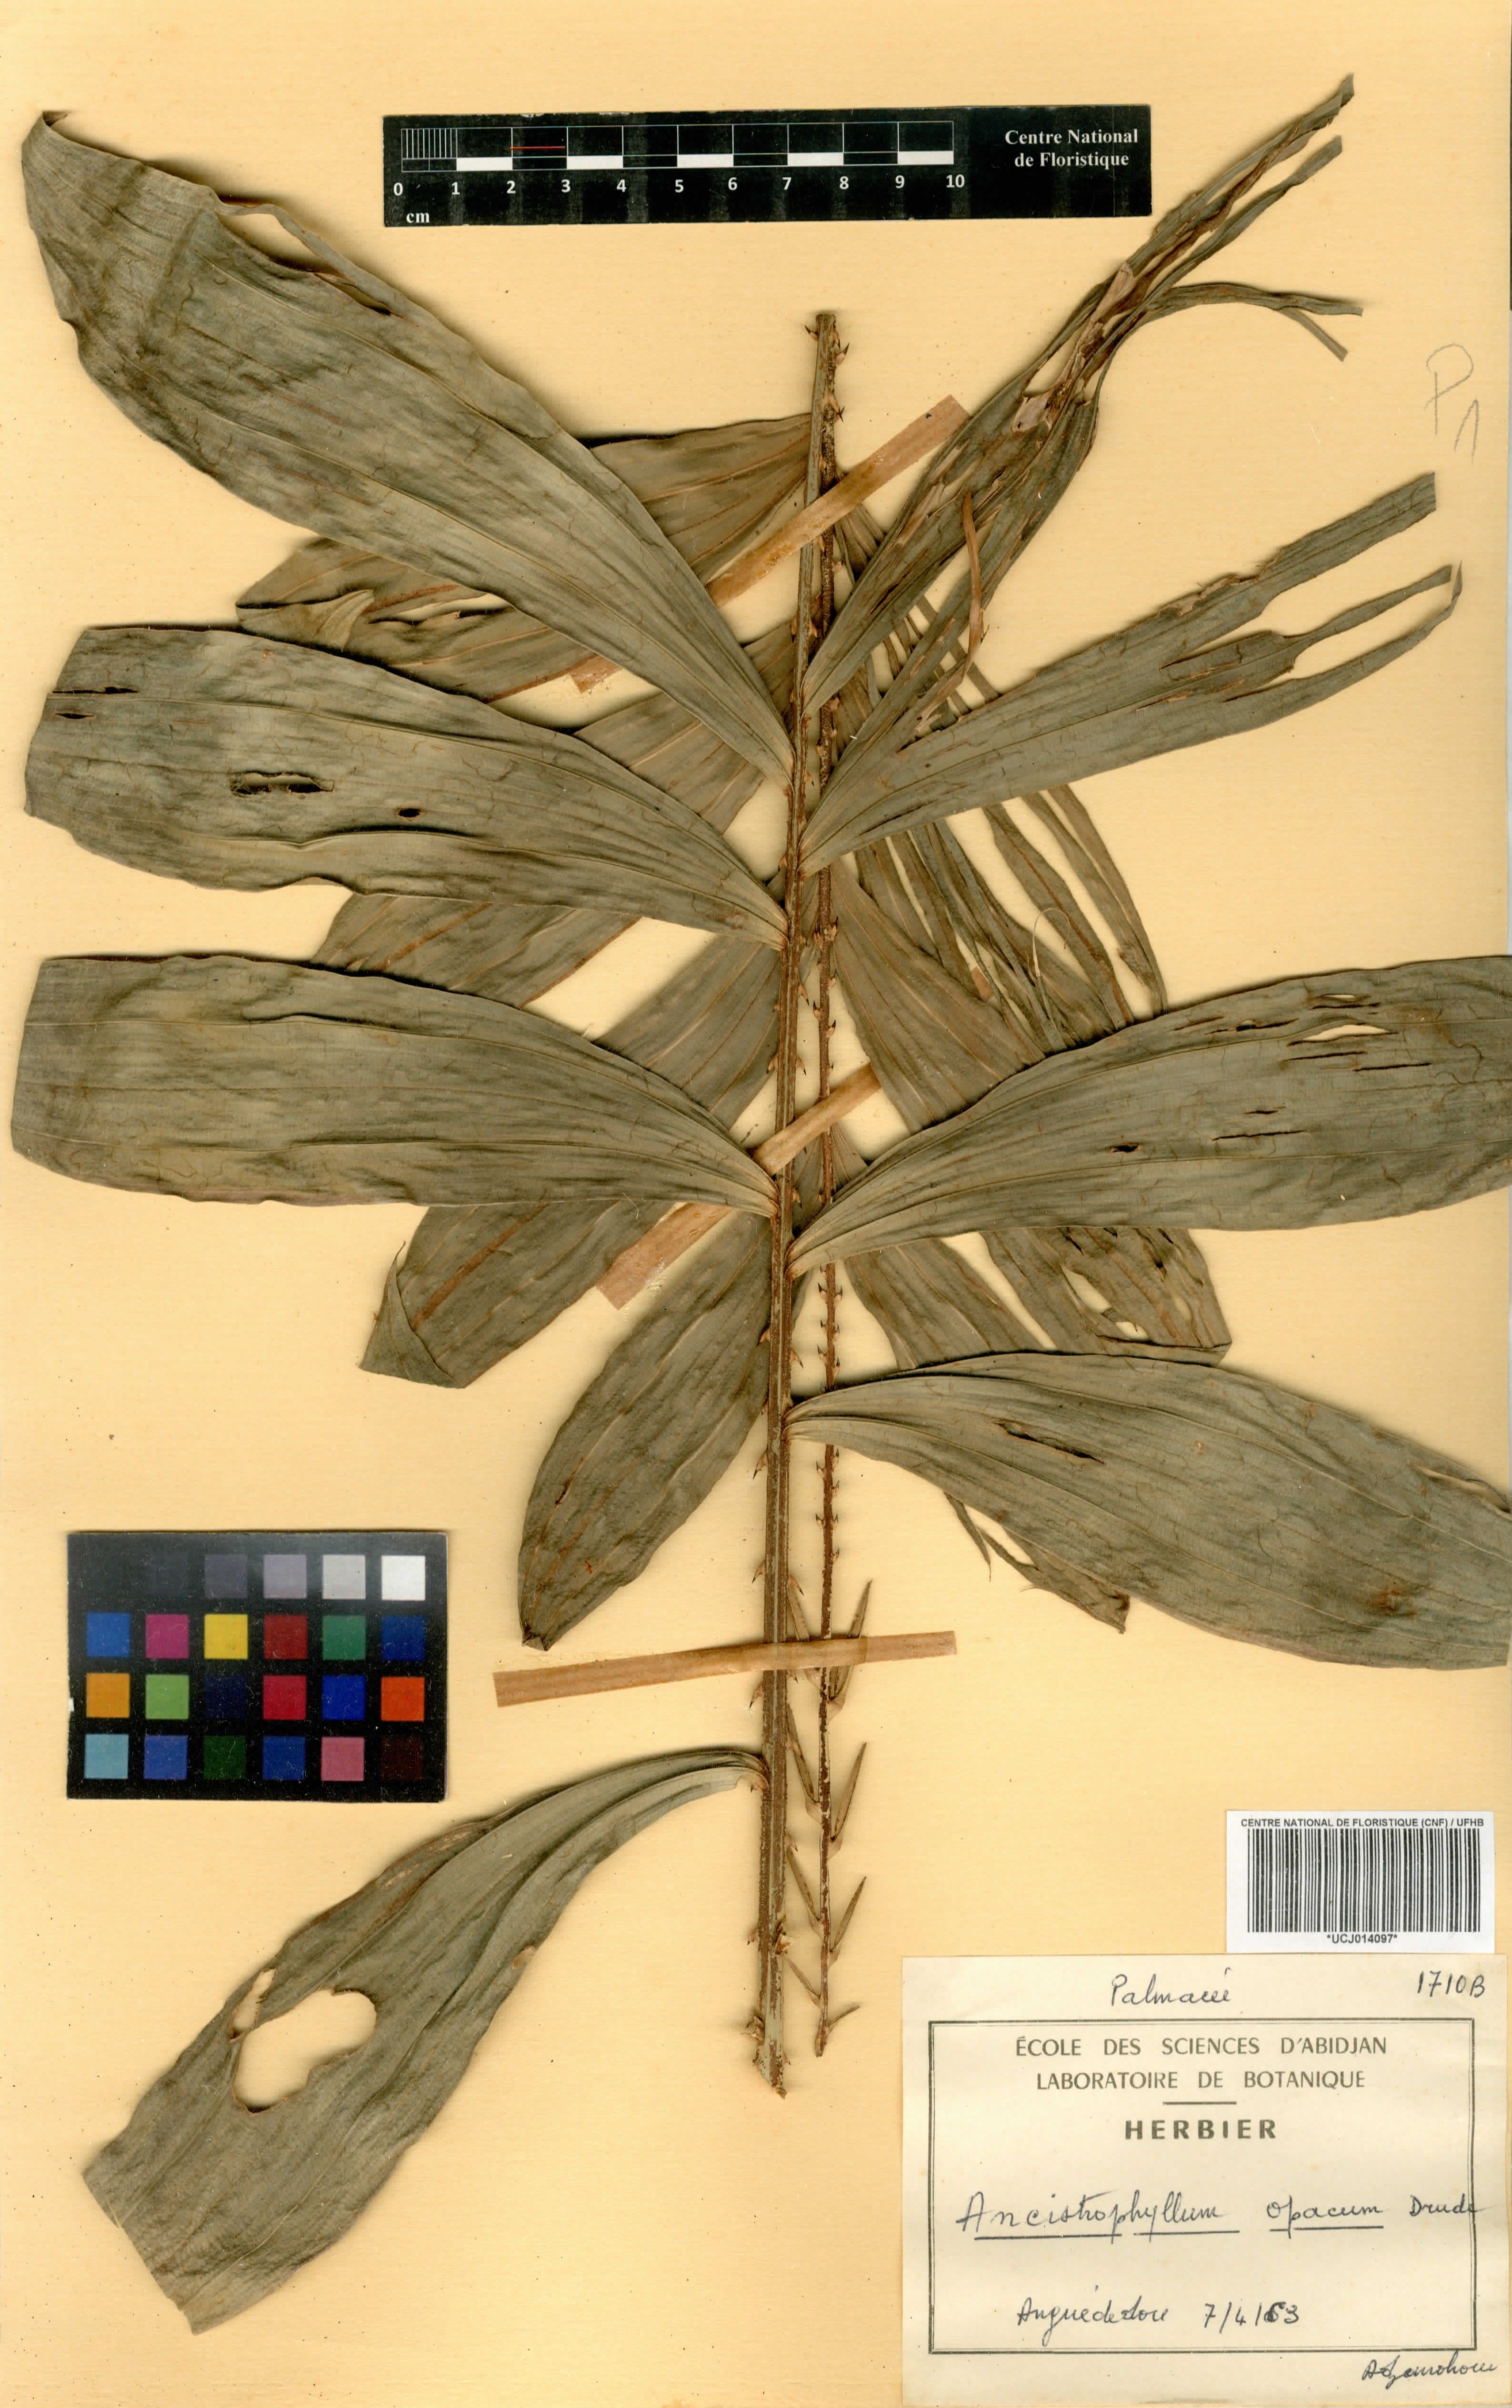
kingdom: Plantae
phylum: Tracheophyta
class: Liliopsida
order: Arecales
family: Arecaceae
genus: Laccosperma
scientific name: Laccosperma opacum
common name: Rattan
